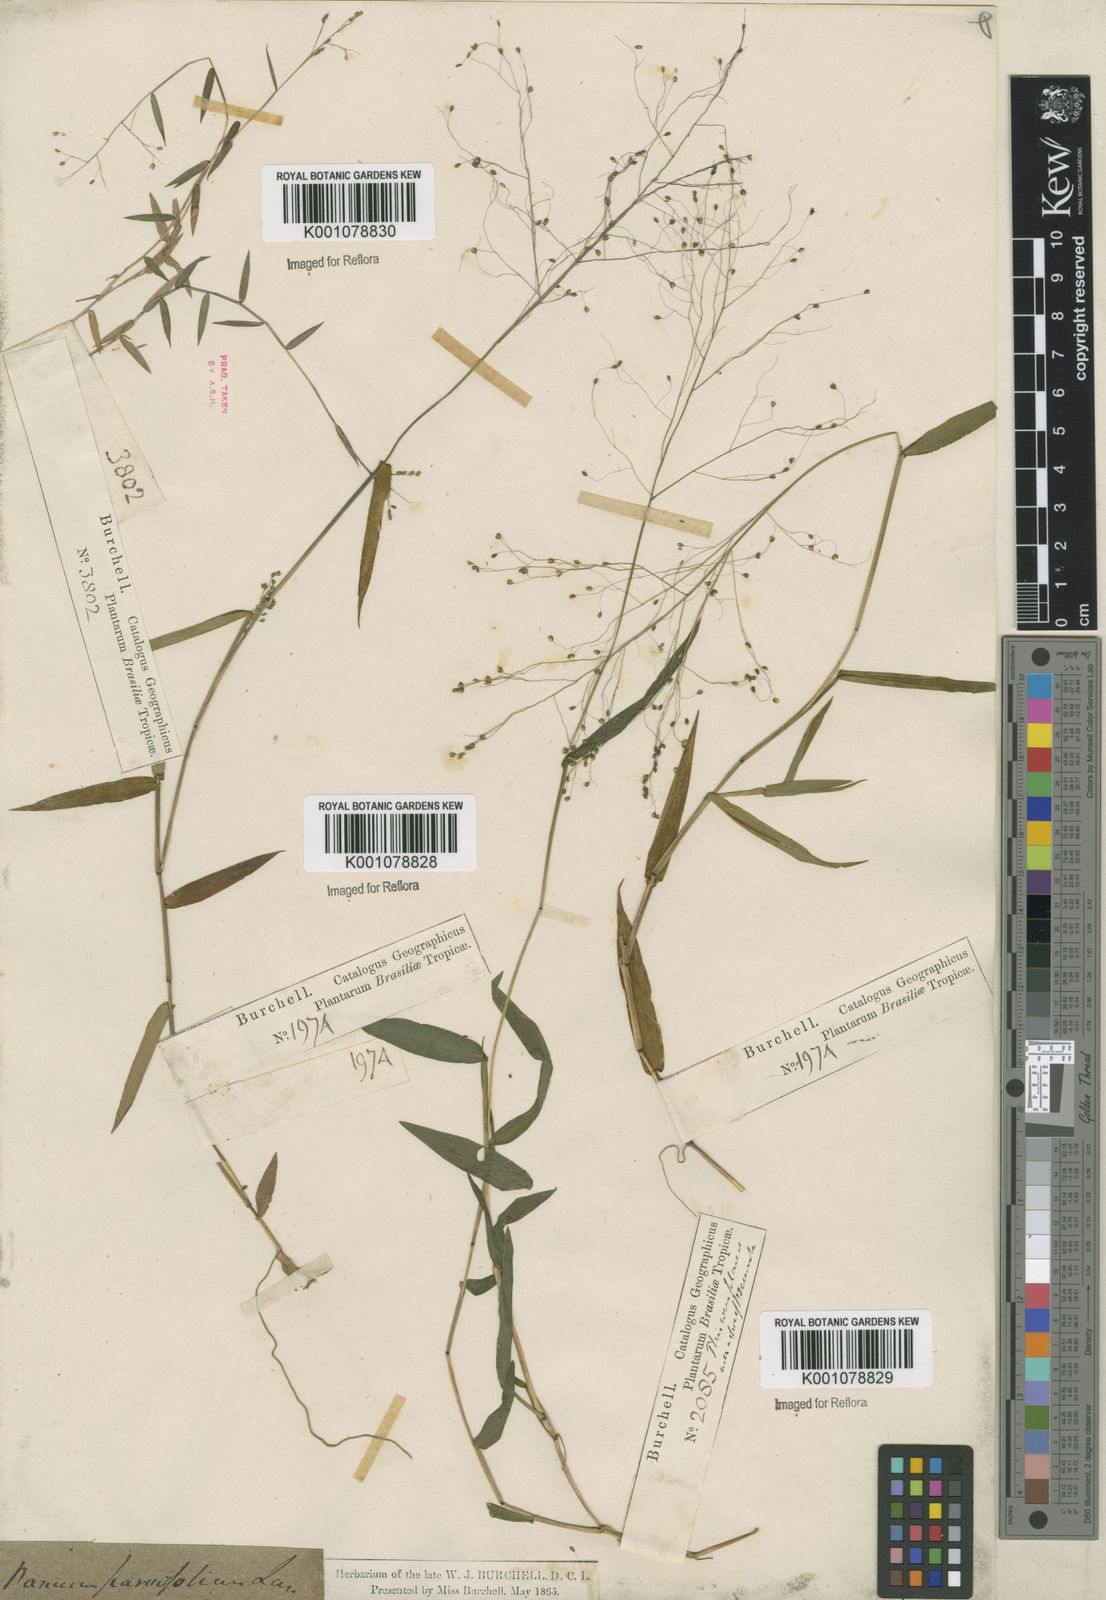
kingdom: Plantae
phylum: Tracheophyta
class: Liliopsida
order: Poales
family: Poaceae
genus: Trichanthecium
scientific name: Trichanthecium schwackeanum
